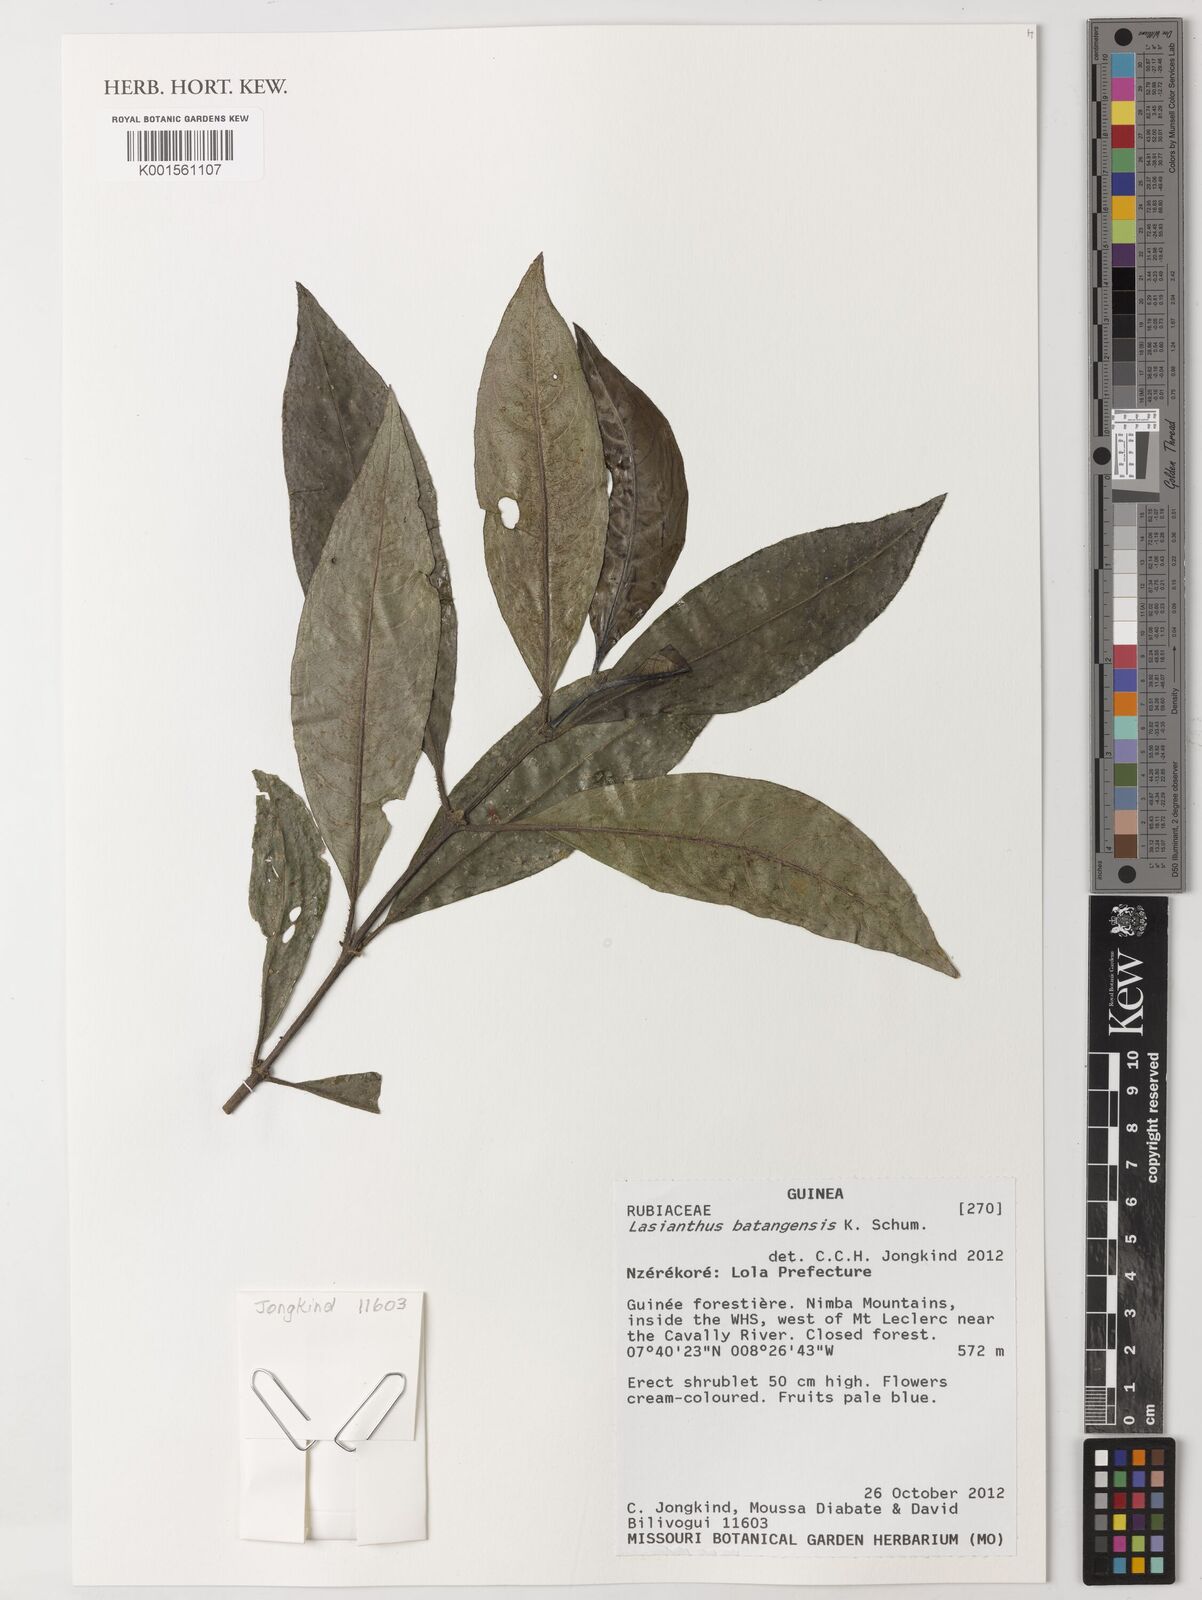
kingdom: Plantae
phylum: Tracheophyta
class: Magnoliopsida
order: Gentianales
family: Rubiaceae
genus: Lasianthus
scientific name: Lasianthus batangensis
